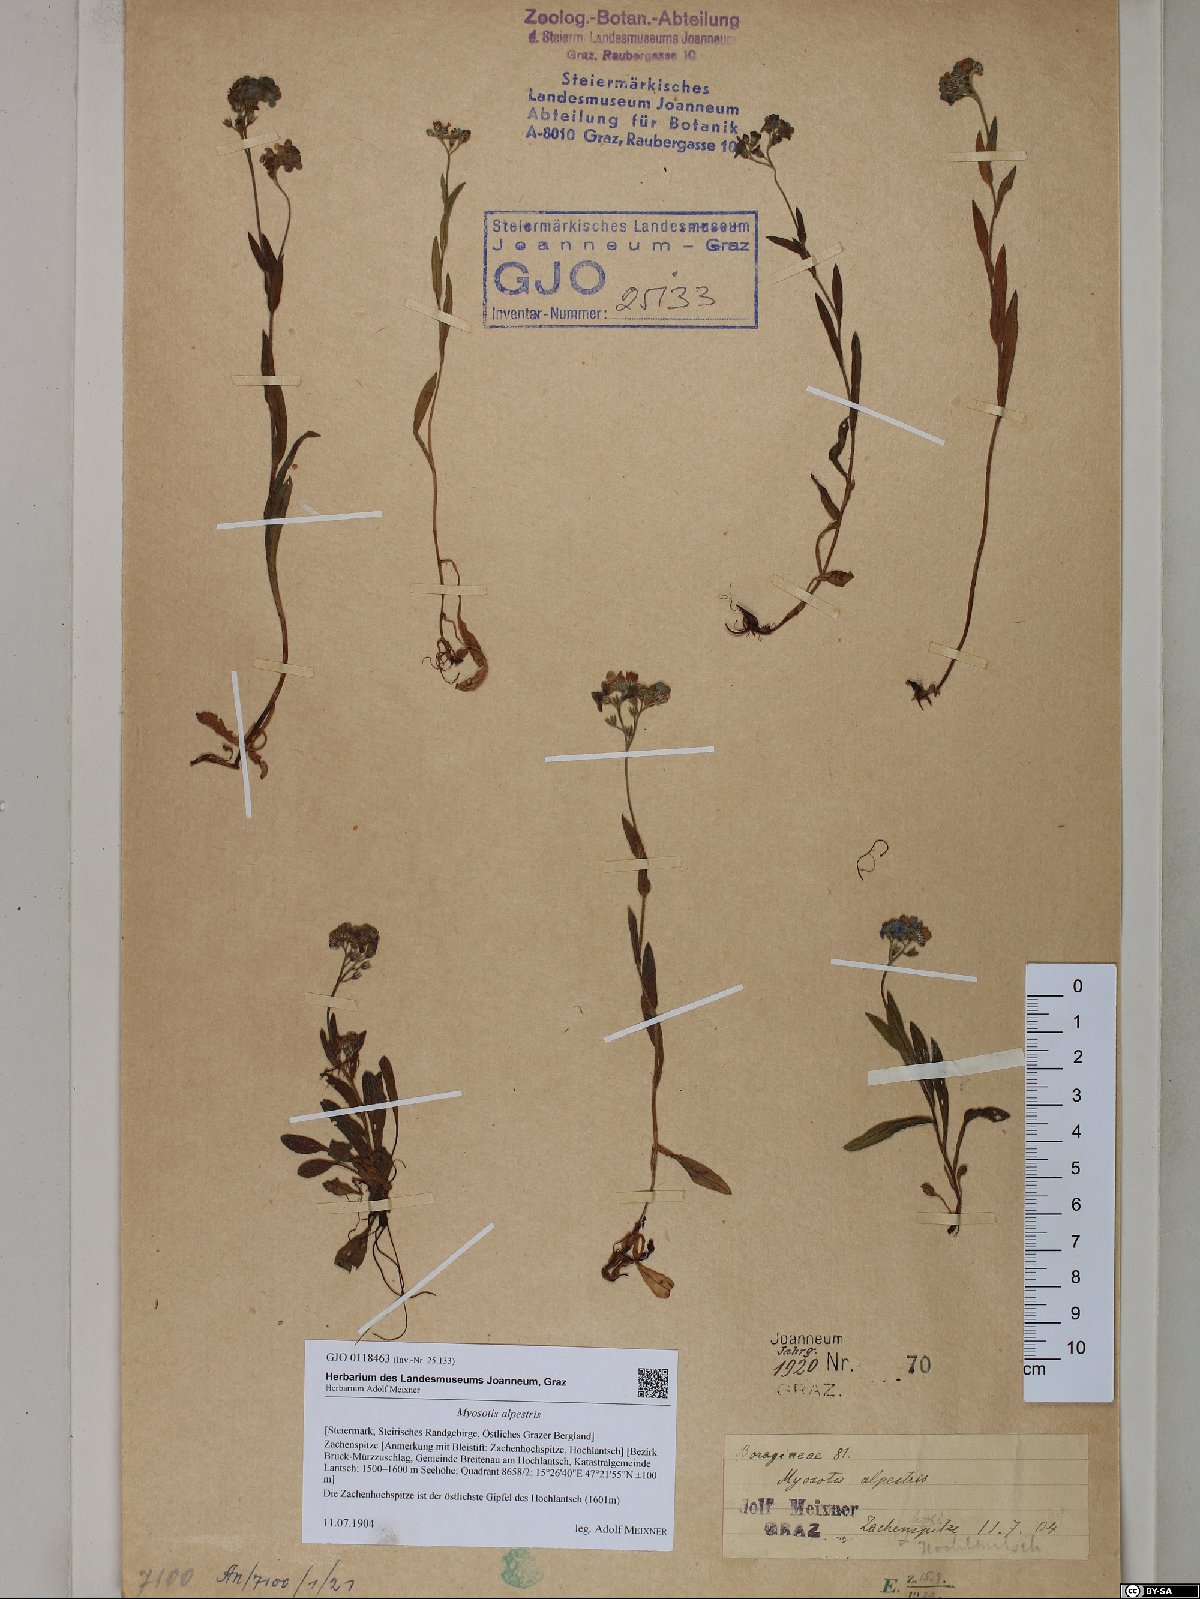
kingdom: Plantae
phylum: Tracheophyta
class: Magnoliopsida
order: Boraginales
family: Boraginaceae
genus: Myosotis
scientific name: Myosotis alpestris
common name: Alpine forget-me-not
